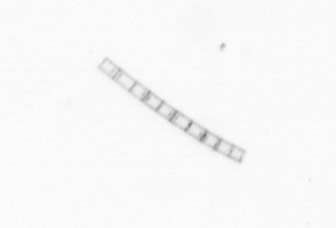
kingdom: Chromista
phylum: Ochrophyta
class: Bacillariophyceae
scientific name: Bacillariophyceae
